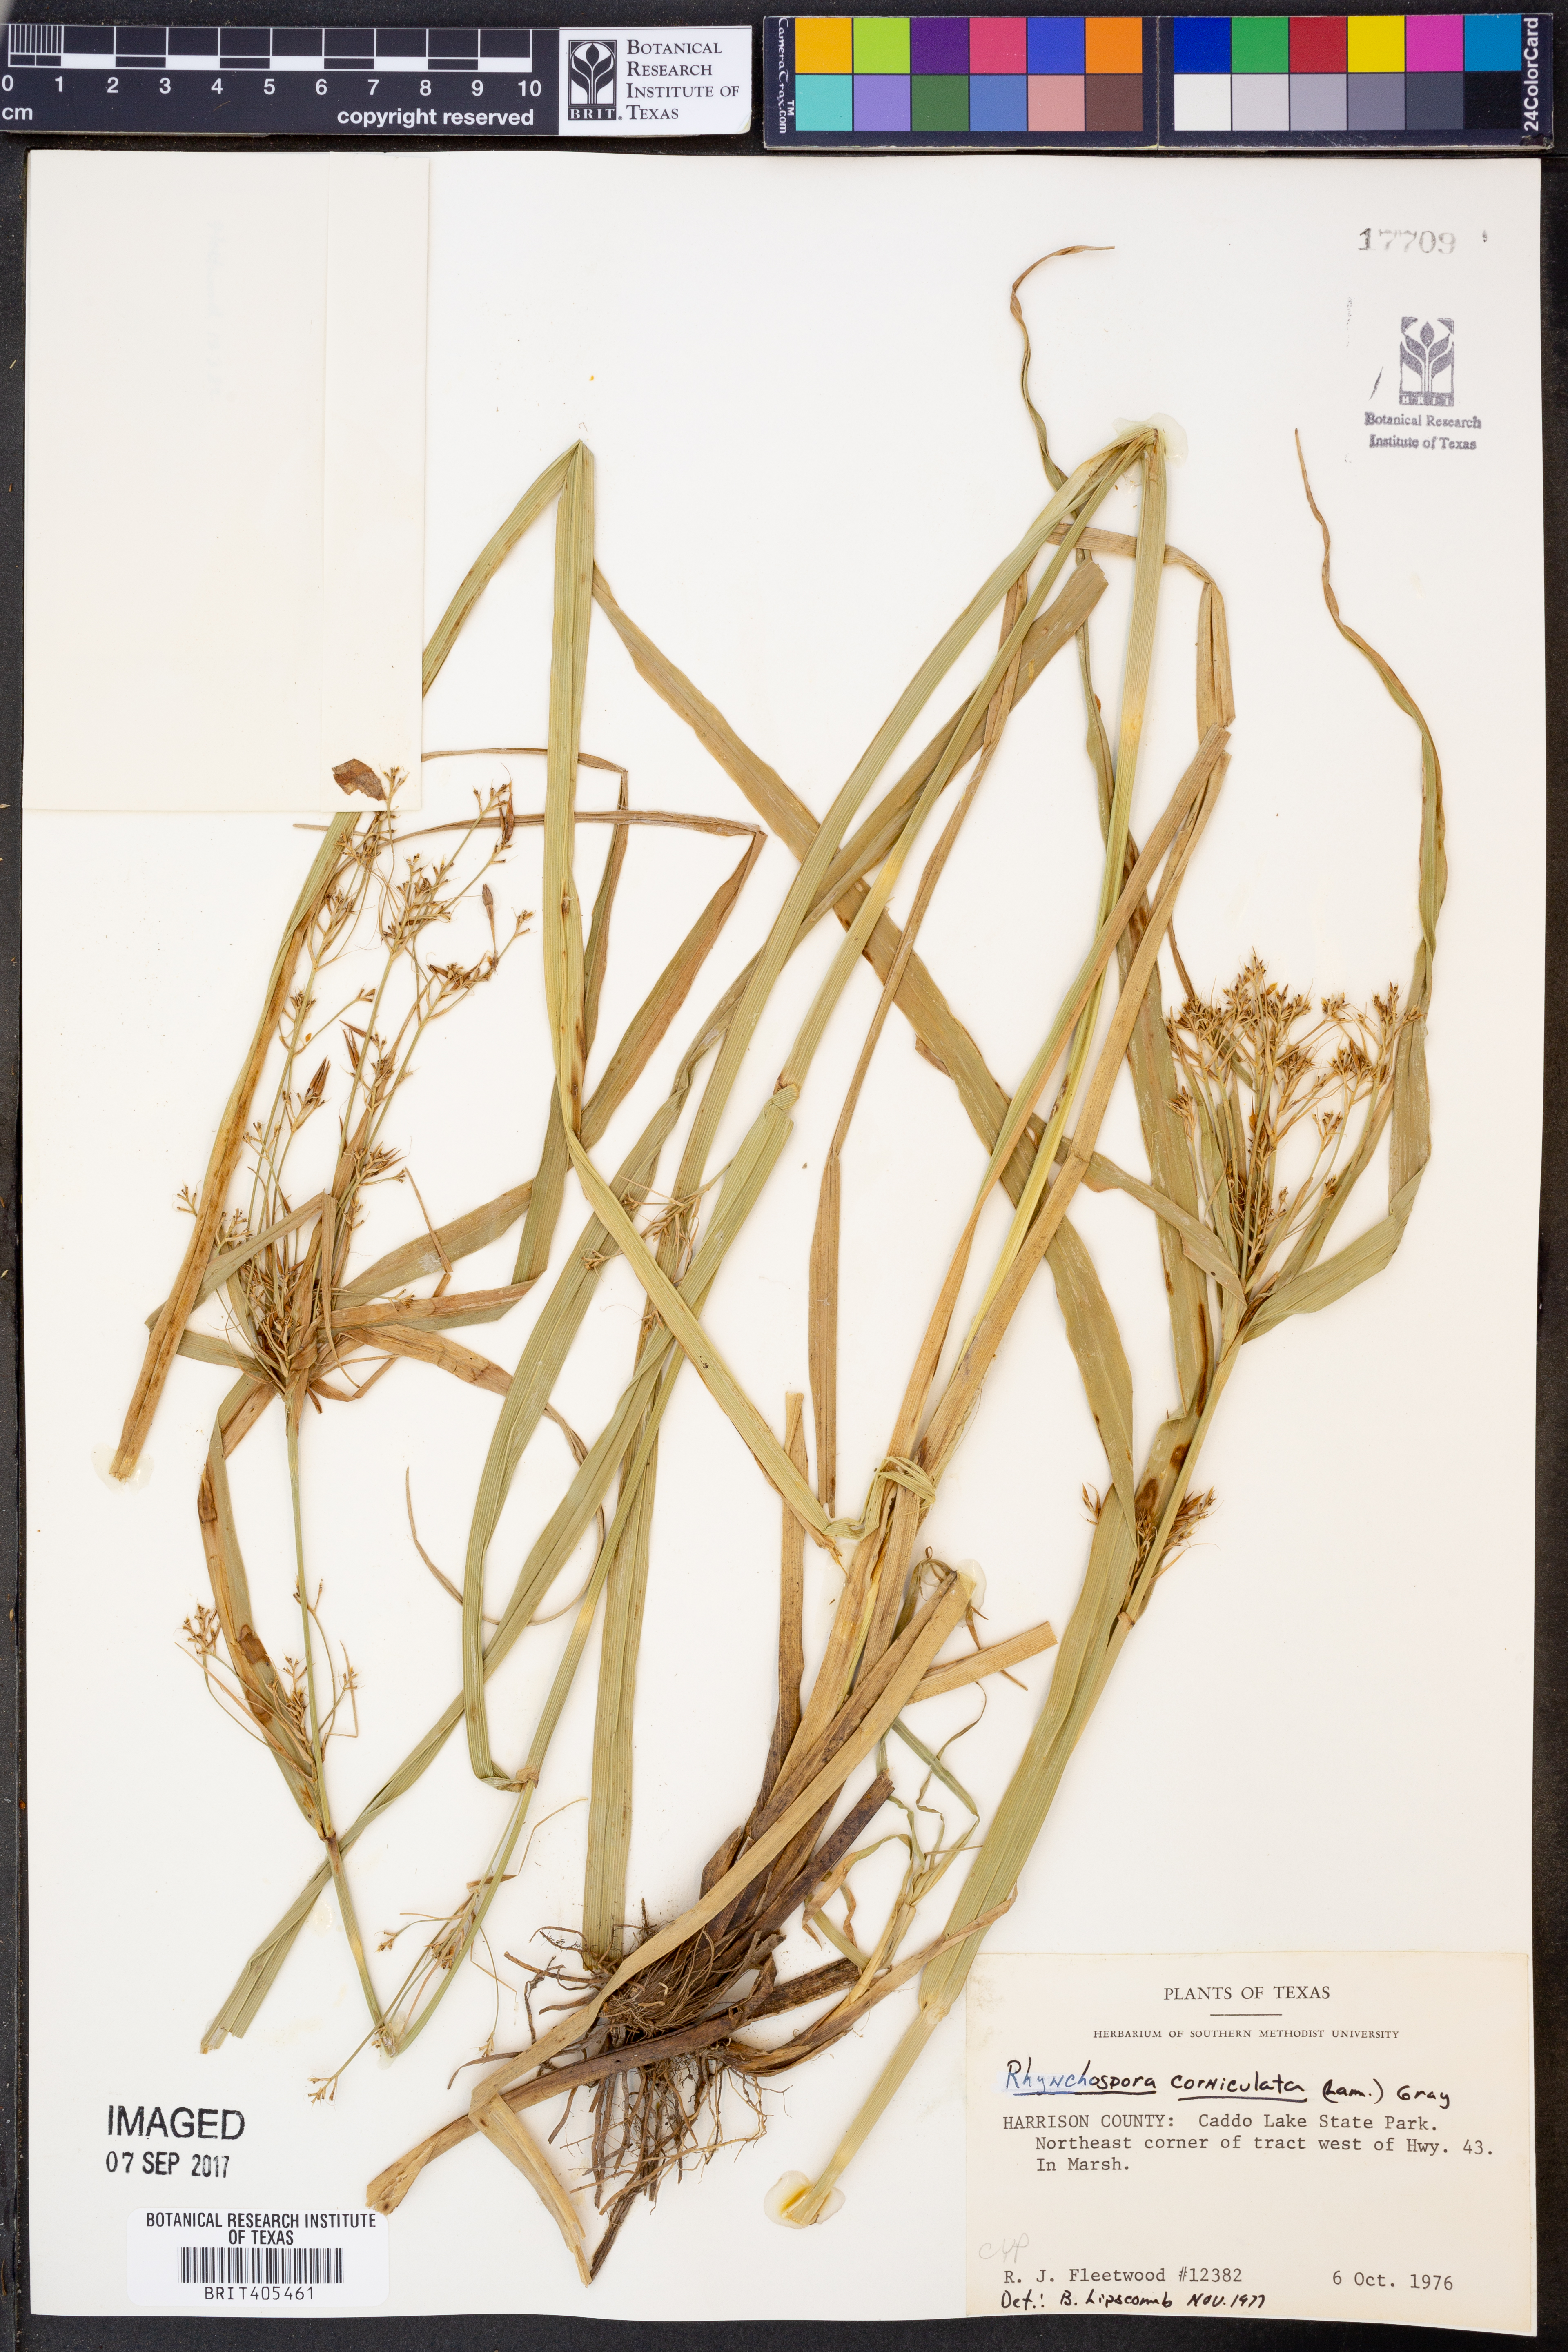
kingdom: Plantae
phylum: Tracheophyta
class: Liliopsida
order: Poales
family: Cyperaceae
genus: Rhynchospora
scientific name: Rhynchospora corniculata
